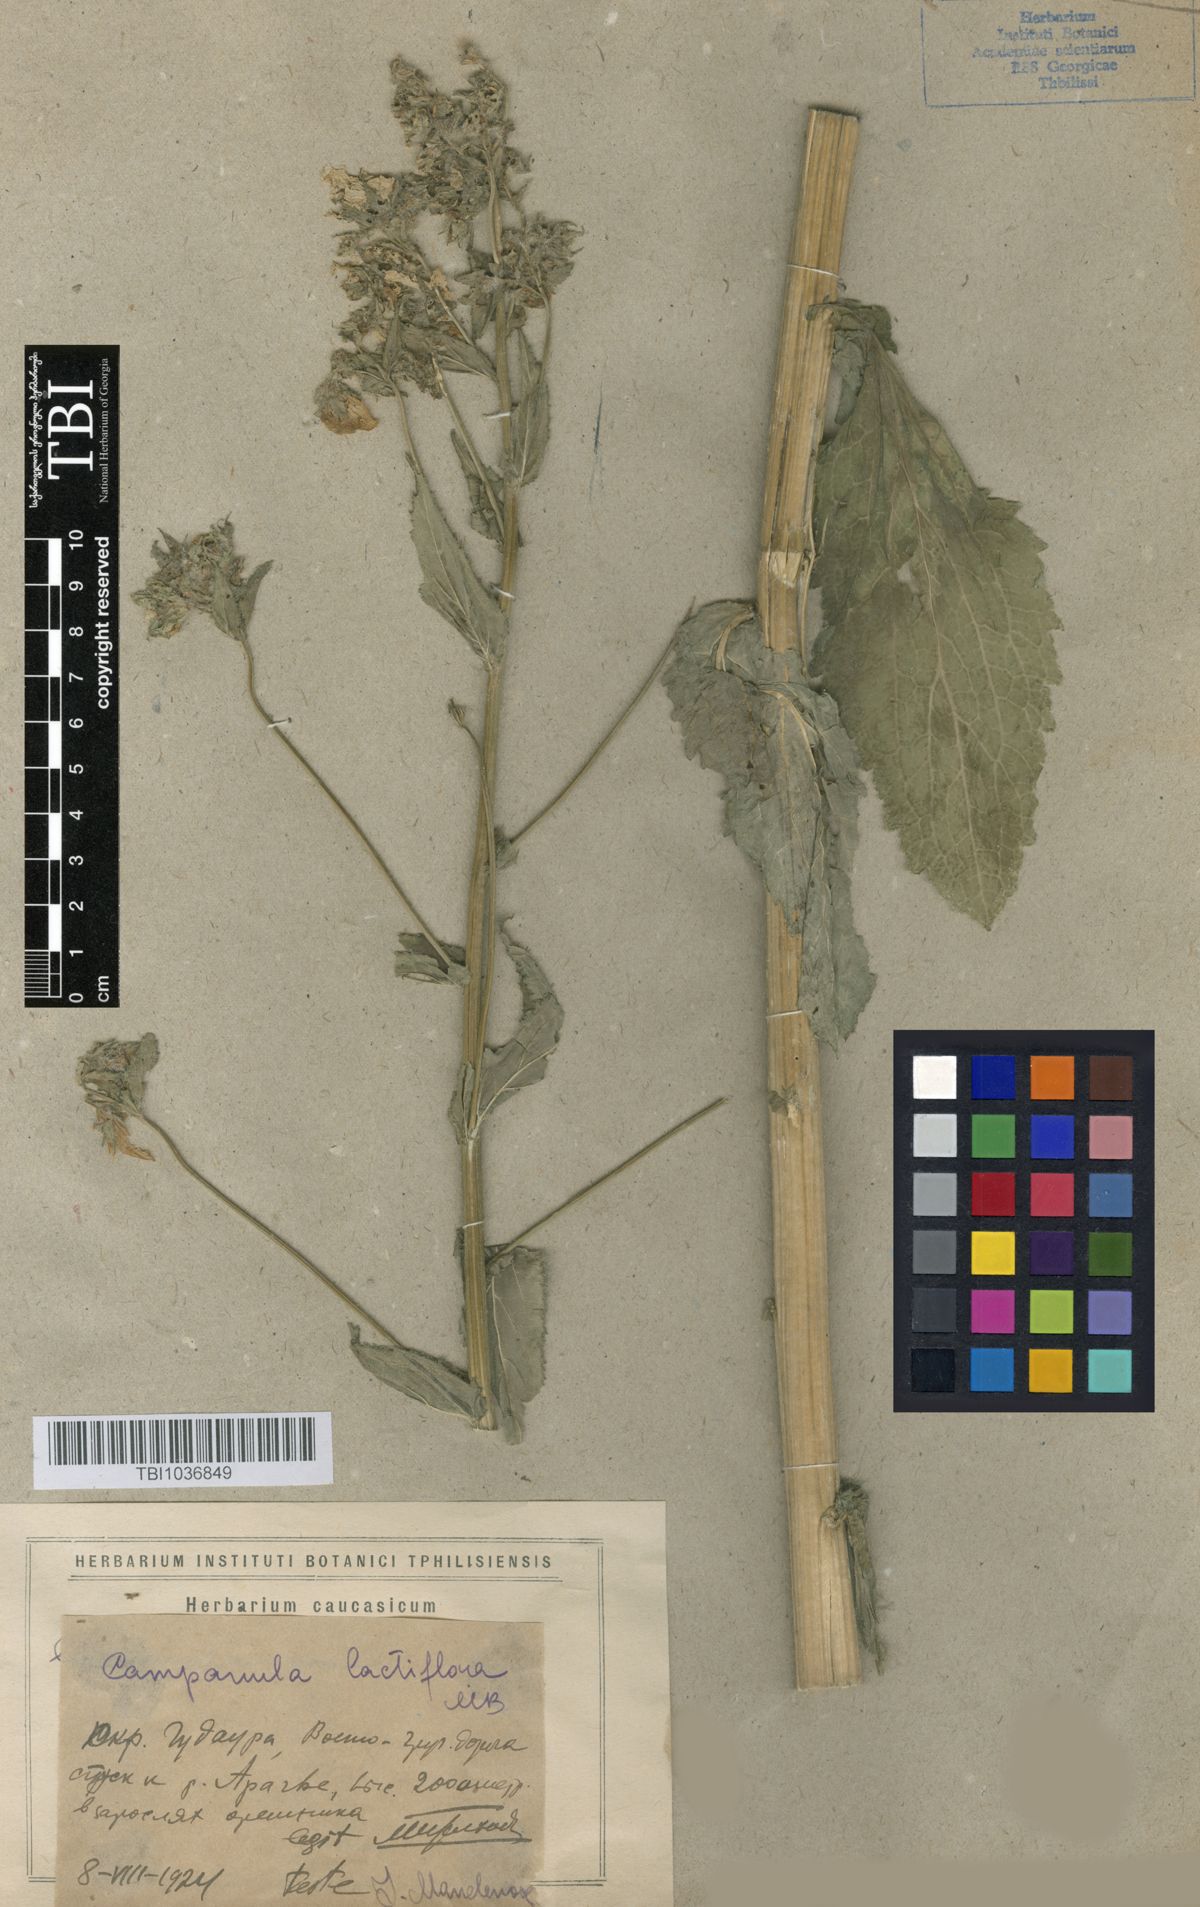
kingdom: Plantae
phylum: Tracheophyta
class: Magnoliopsida
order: Asterales
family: Campanulaceae
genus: Campanula
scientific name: Campanula lactiflora
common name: Milky bellflower
